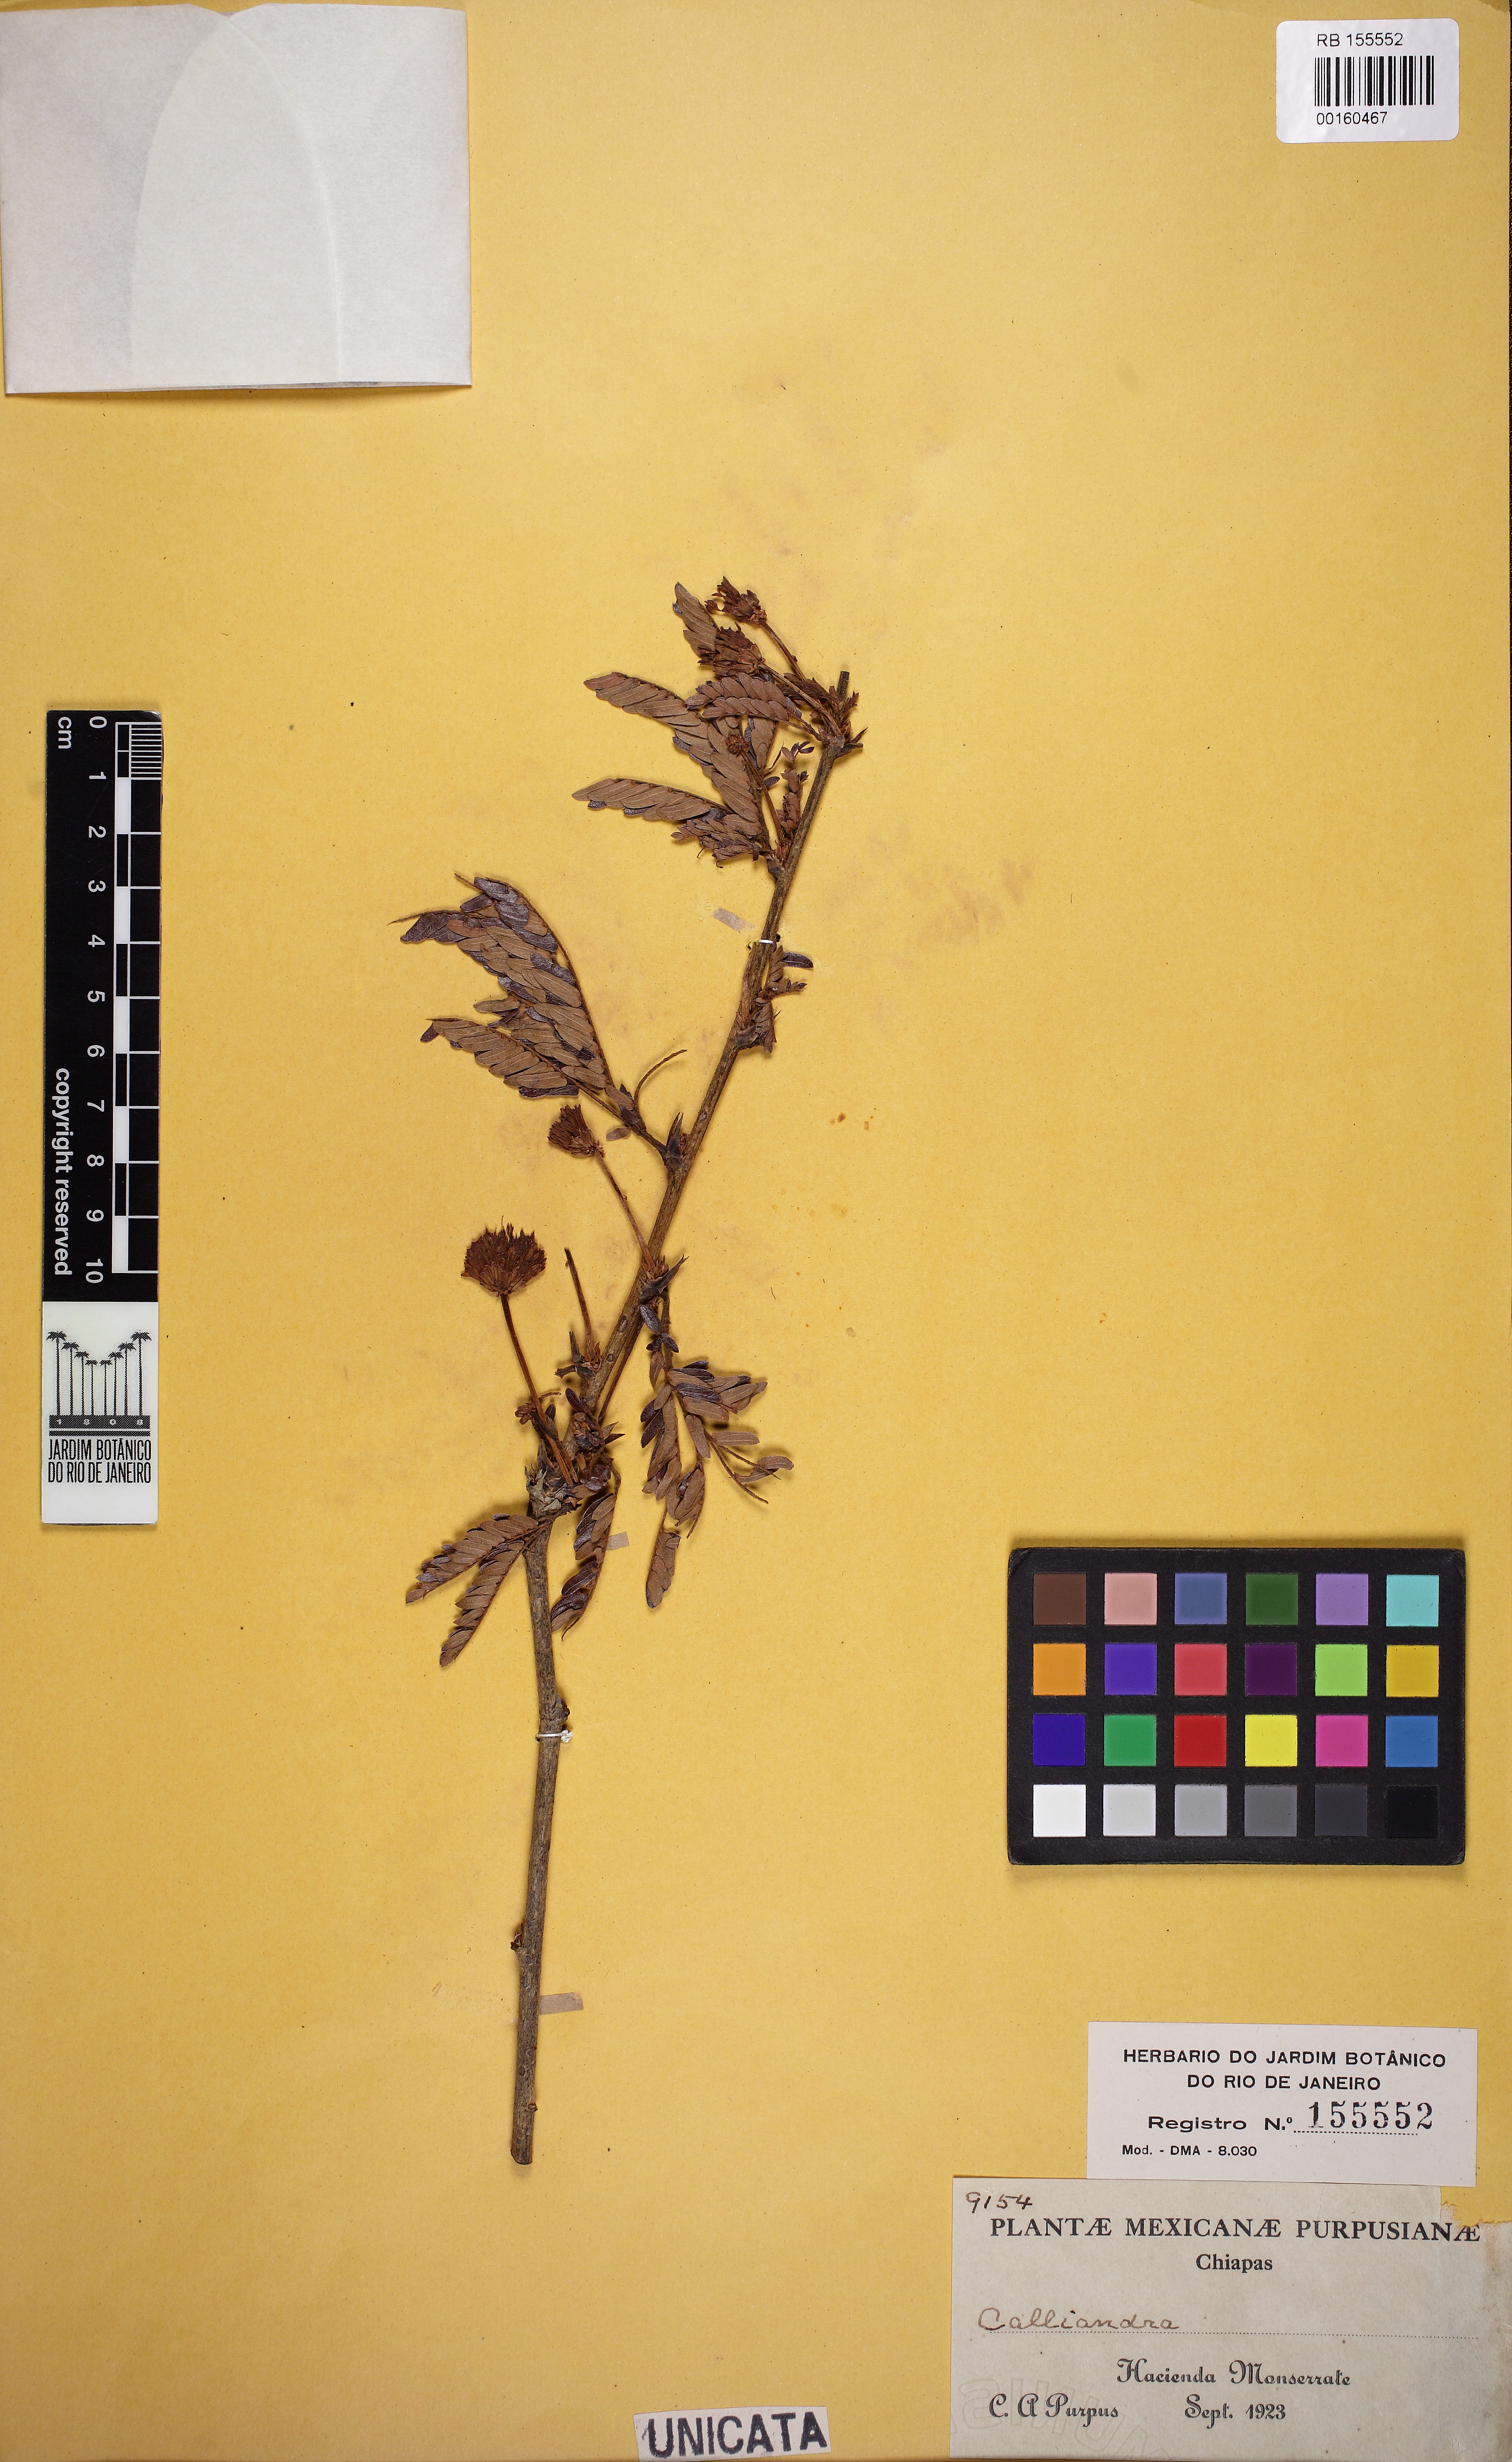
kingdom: Plantae
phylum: Tracheophyta
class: Magnoliopsida
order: Fabales
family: Fabaceae
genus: Calliandra
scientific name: Calliandra
